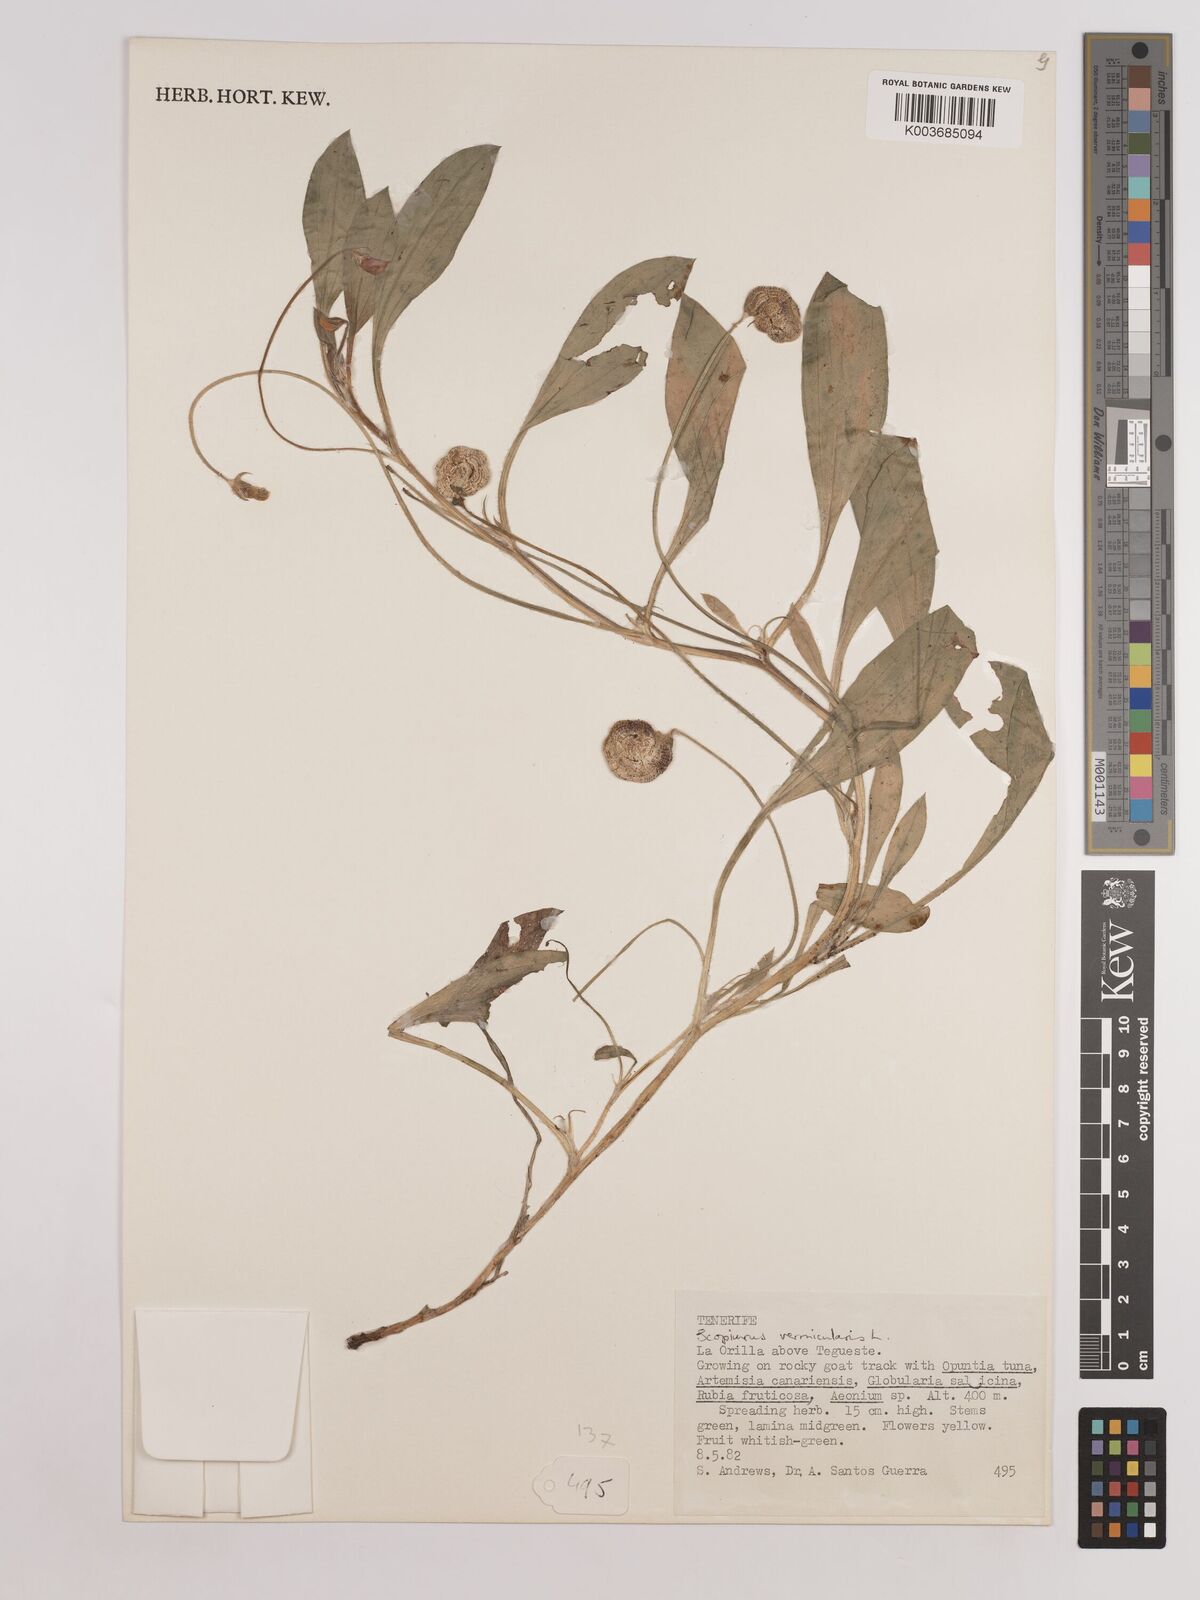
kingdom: Plantae
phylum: Tracheophyta
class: Magnoliopsida
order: Fabales
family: Fabaceae
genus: Scorpiurus
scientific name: Scorpiurus vermiculatus
